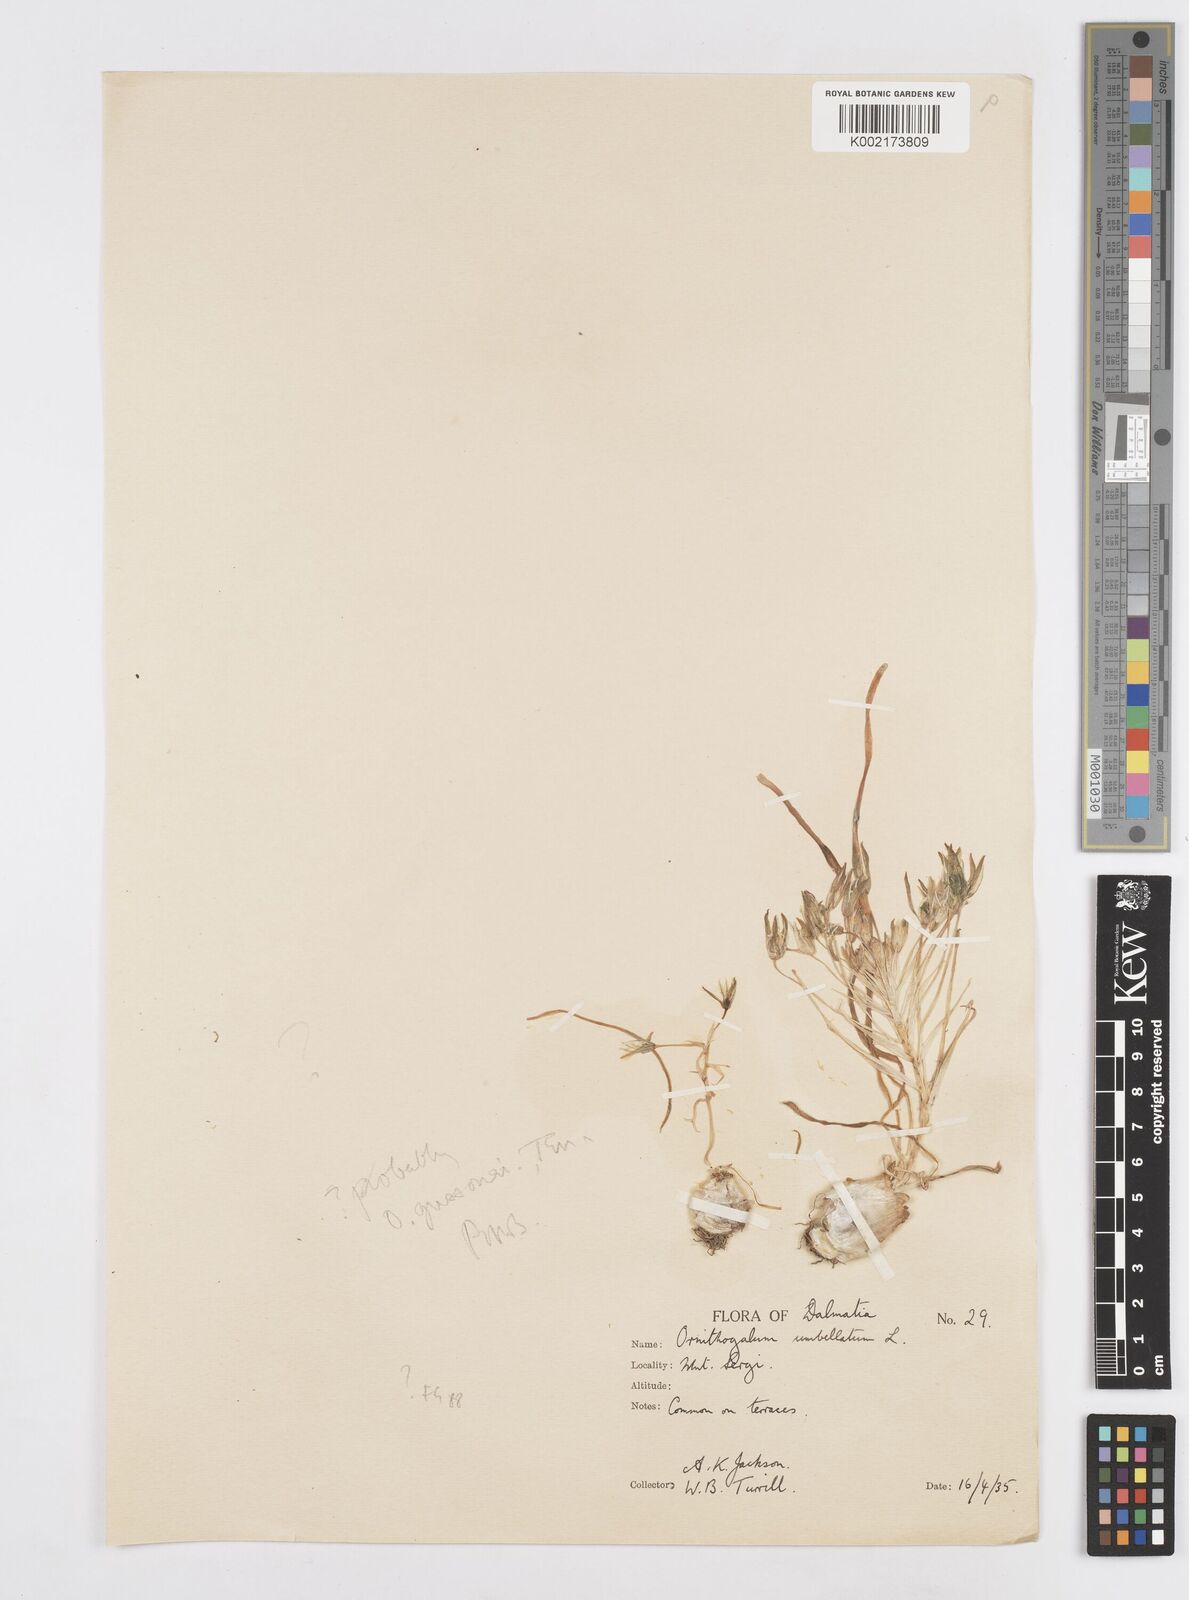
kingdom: Plantae
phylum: Tracheophyta
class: Liliopsida
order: Asparagales
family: Asparagaceae
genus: Ornithogalum
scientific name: Ornithogalum umbellatum
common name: Garden star-of-bethlehem
